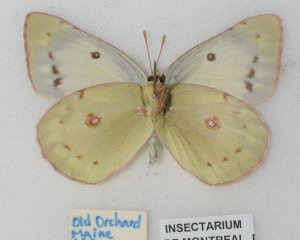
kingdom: Animalia
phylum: Arthropoda
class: Insecta
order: Lepidoptera
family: Pieridae
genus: Colias
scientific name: Colias eurytheme
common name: Orange Sulphur
